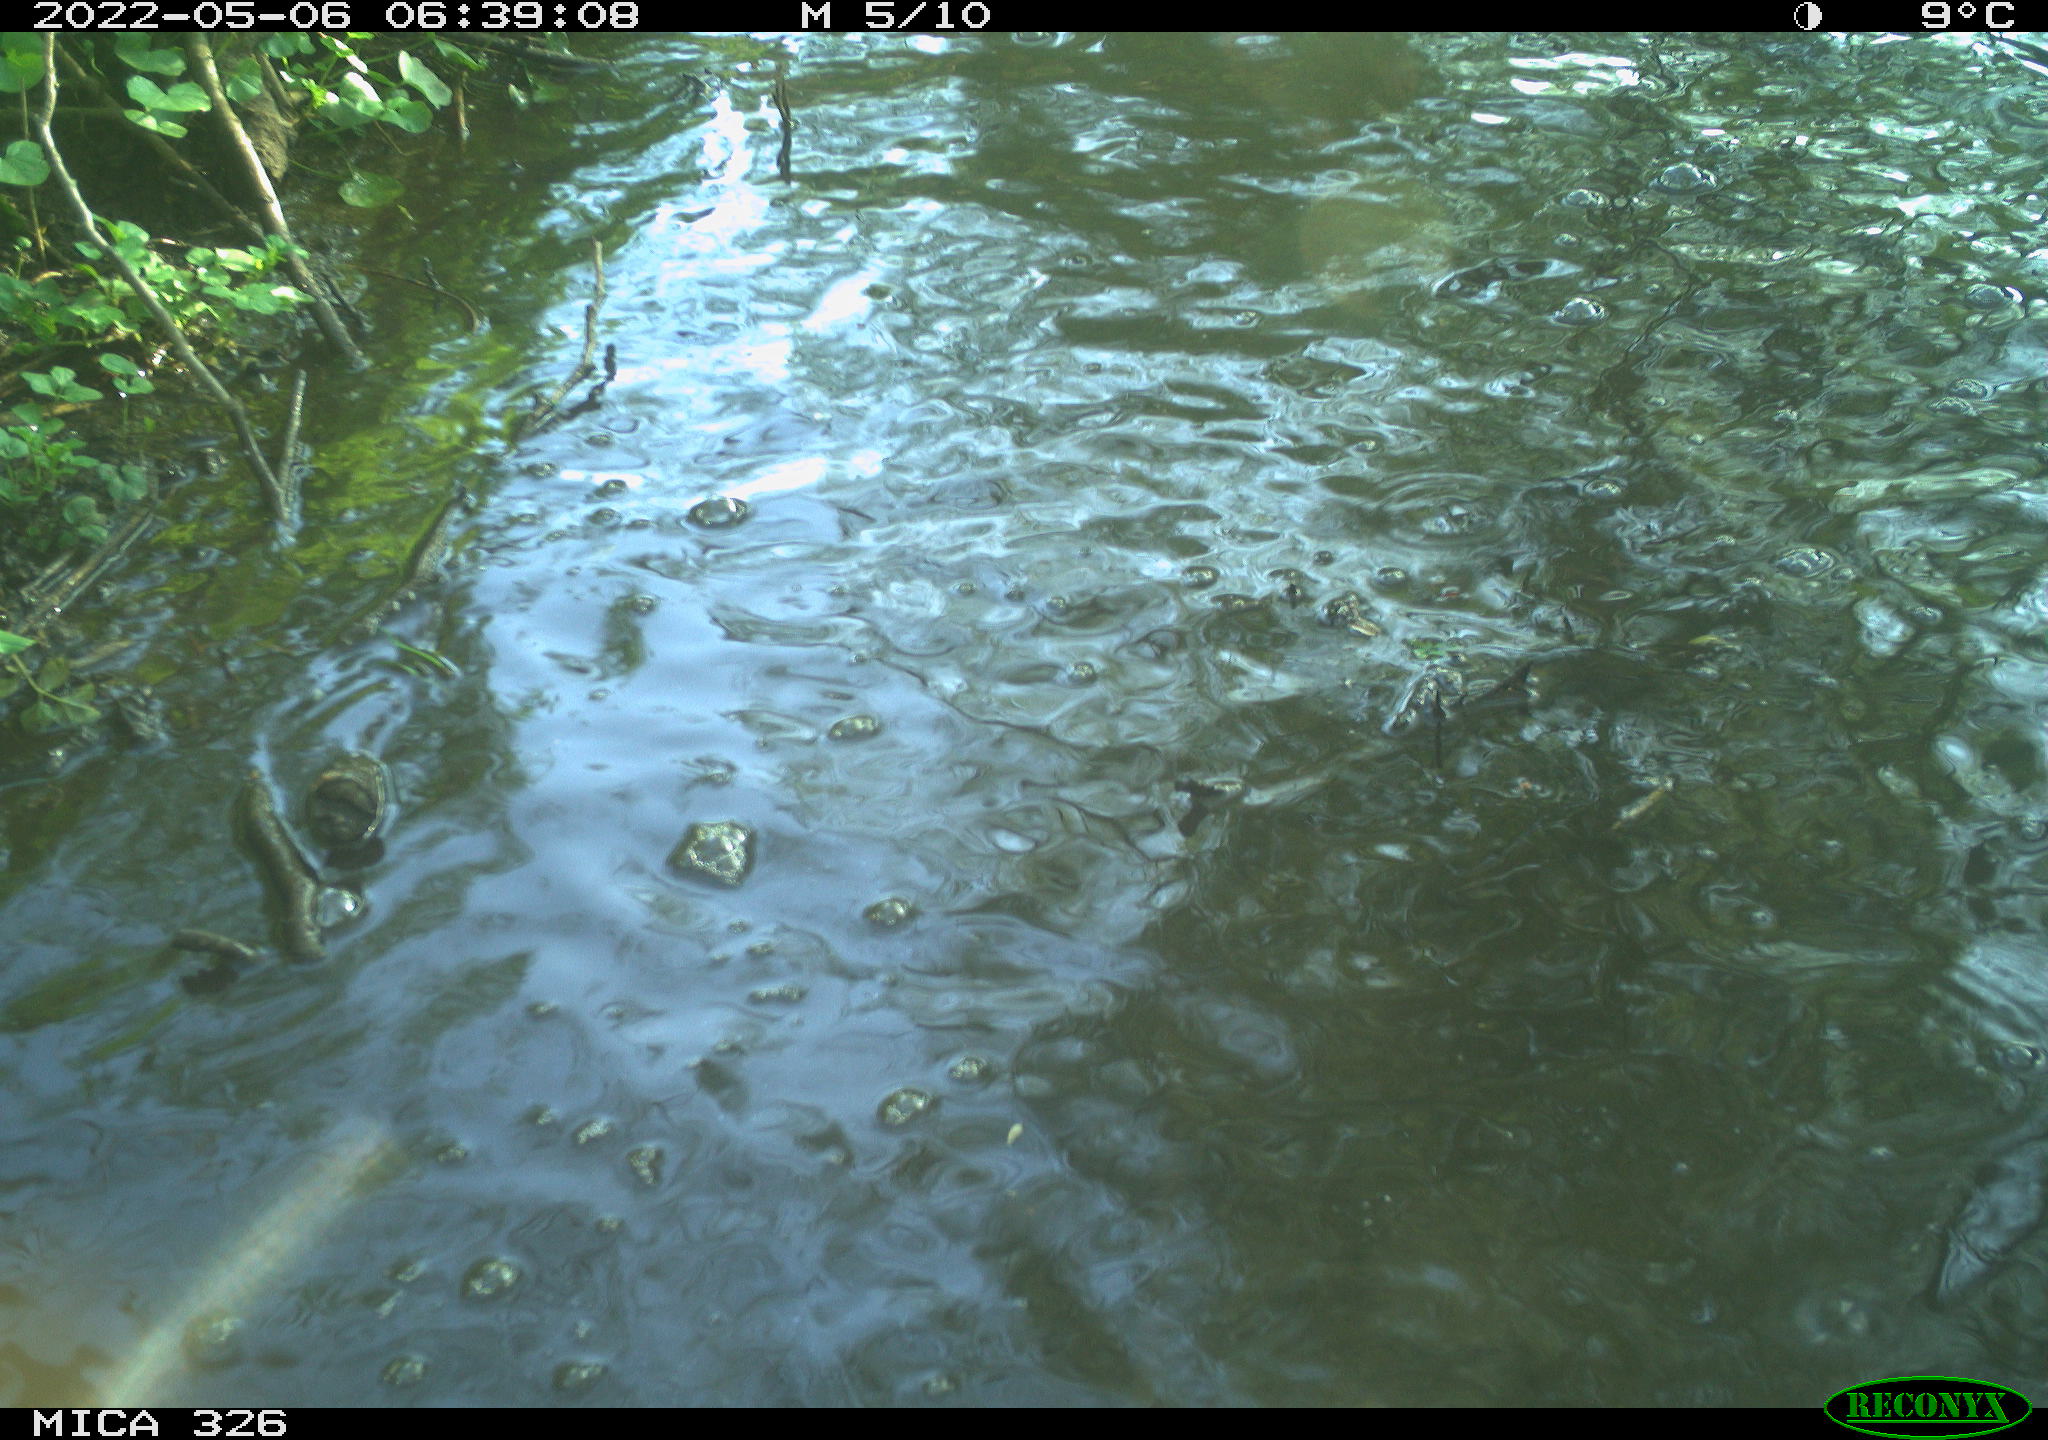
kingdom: Animalia
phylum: Chordata
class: Aves
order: Anseriformes
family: Anatidae
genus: Anas
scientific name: Anas platyrhynchos
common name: Mallard
